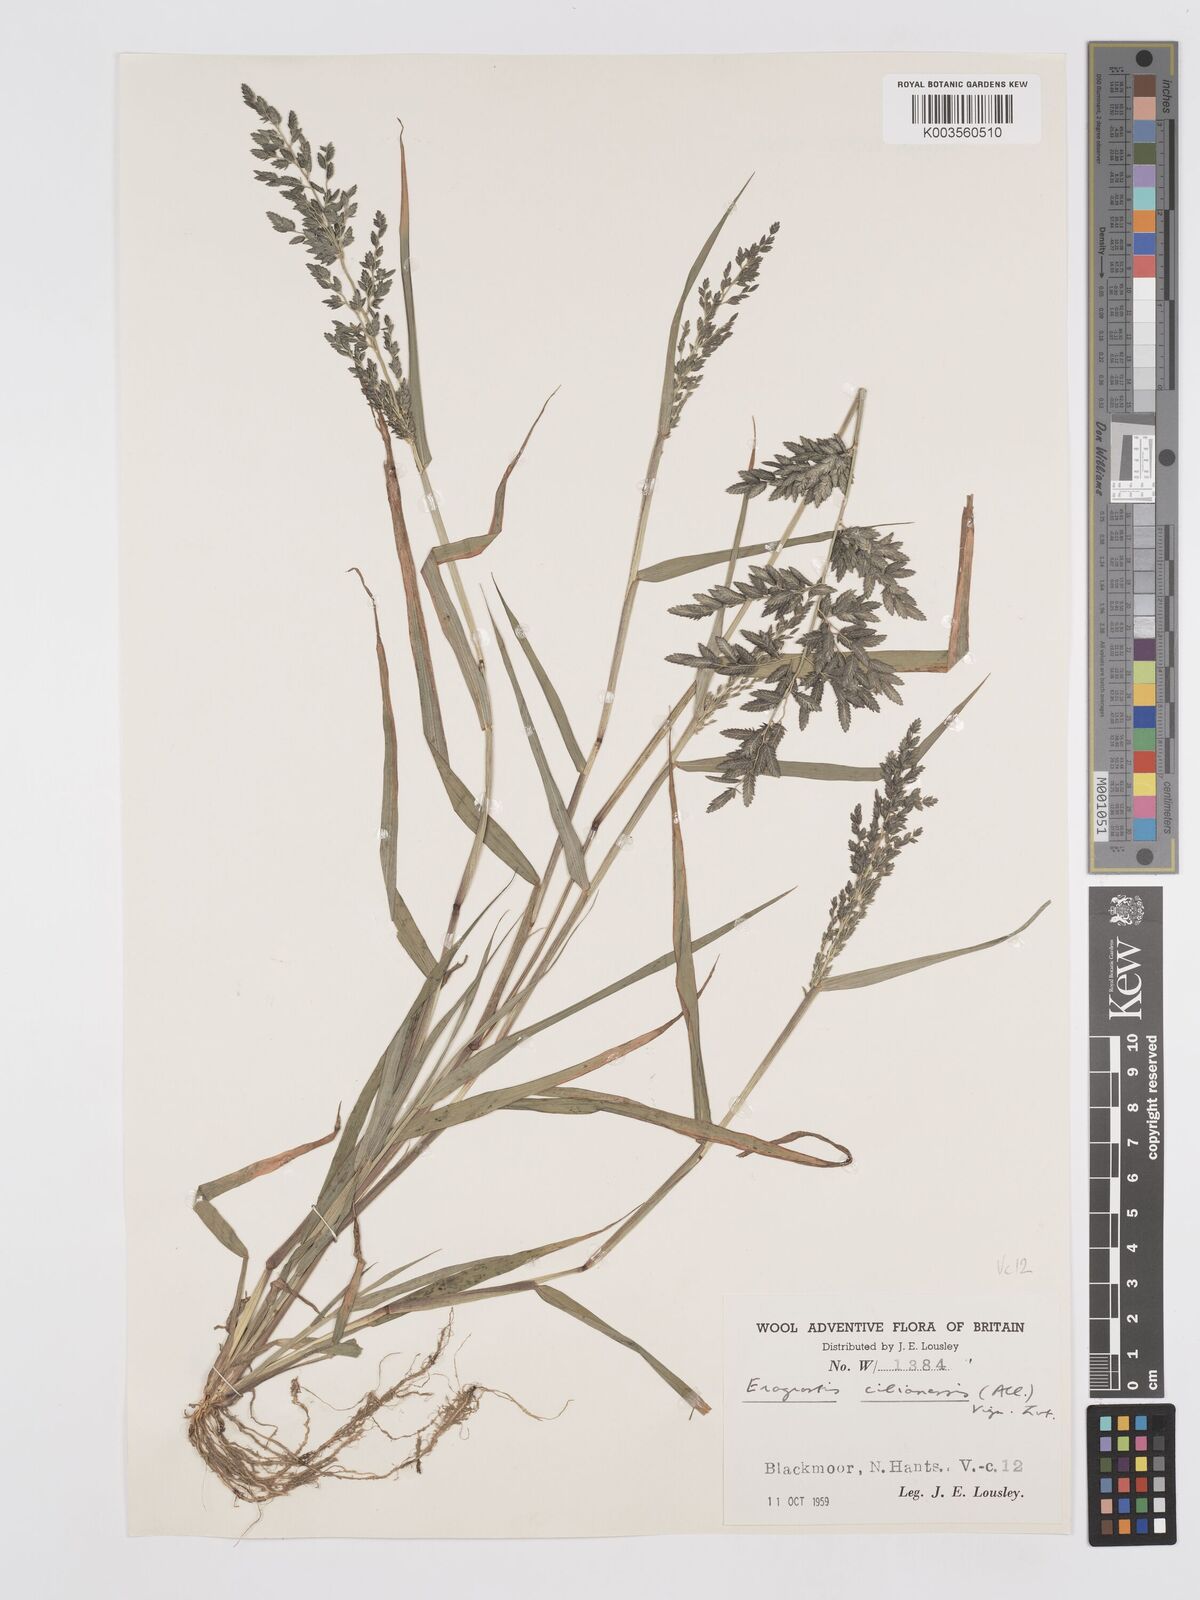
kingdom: Plantae
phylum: Tracheophyta
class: Liliopsida
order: Poales
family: Poaceae
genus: Eragrostis
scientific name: Eragrostis cilianensis
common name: Stinkgrass
